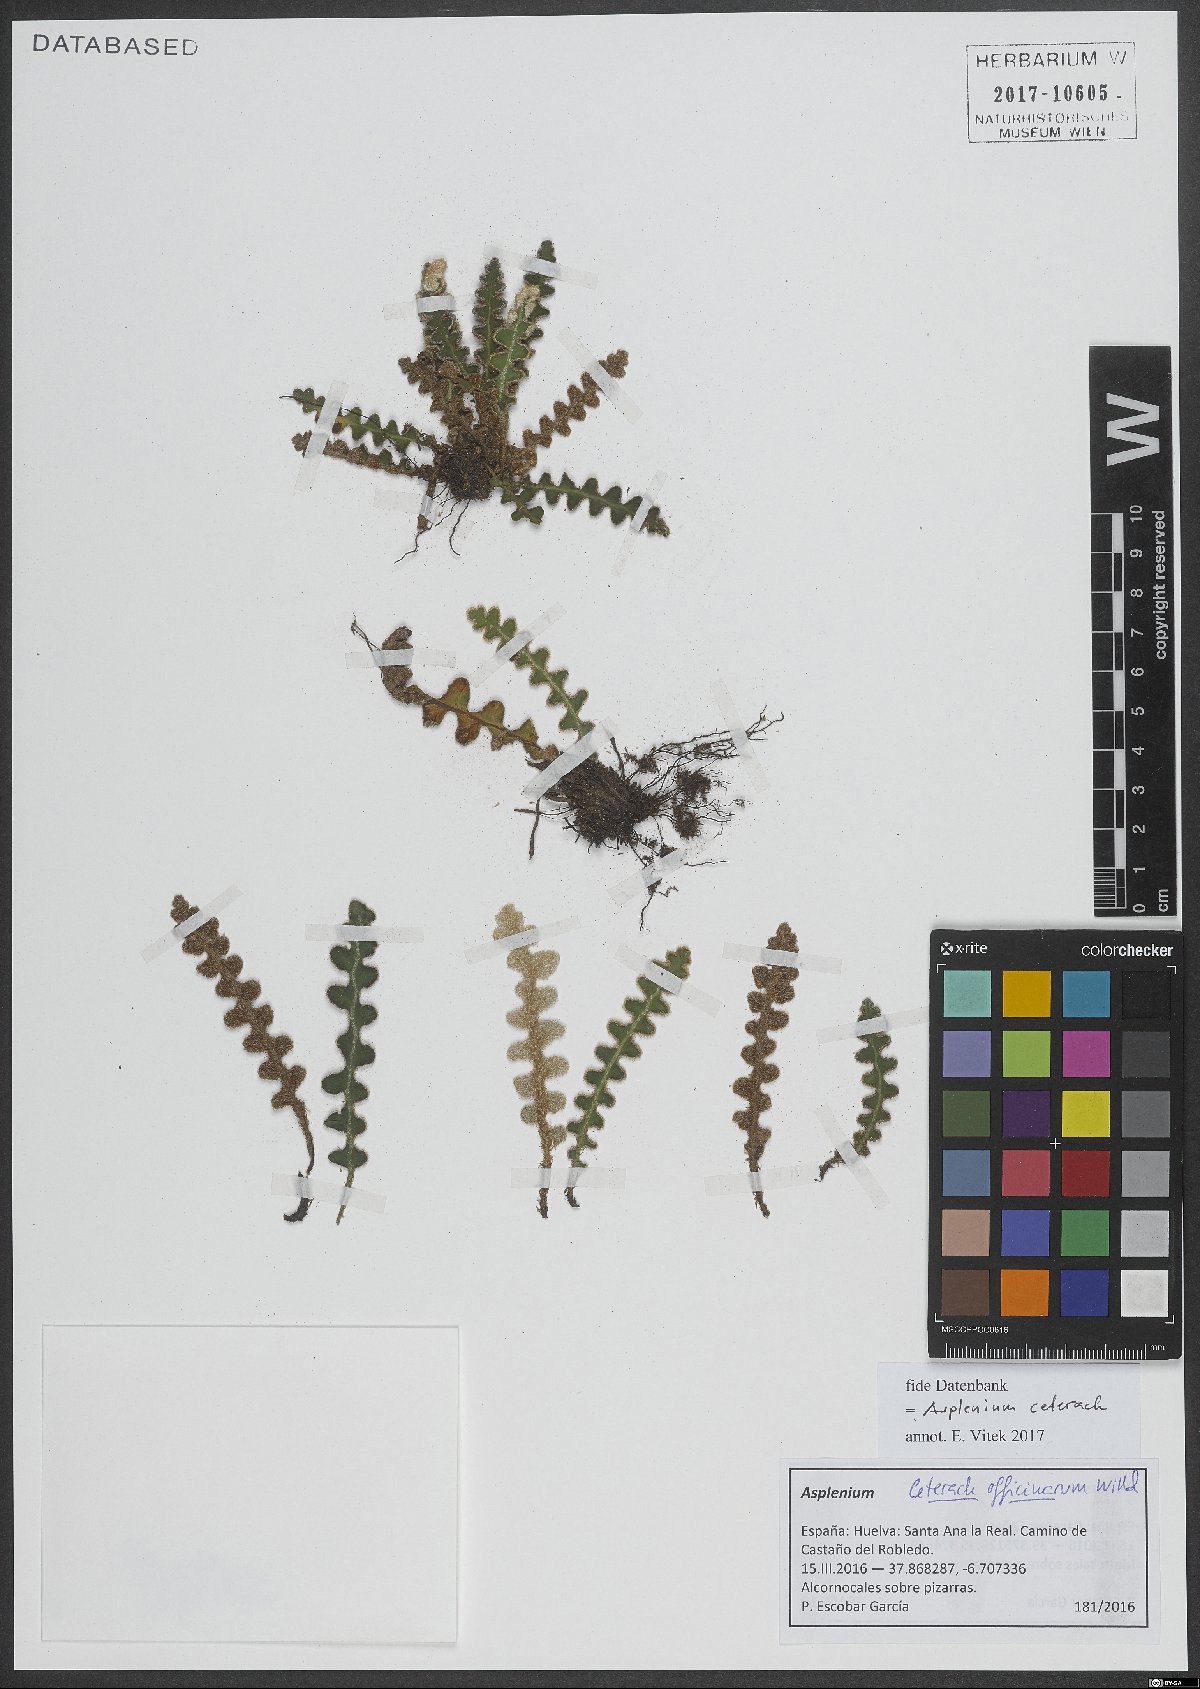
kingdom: Plantae
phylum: Tracheophyta
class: Polypodiopsida
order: Polypodiales
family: Aspleniaceae
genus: Asplenium
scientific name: Asplenium ceterach
